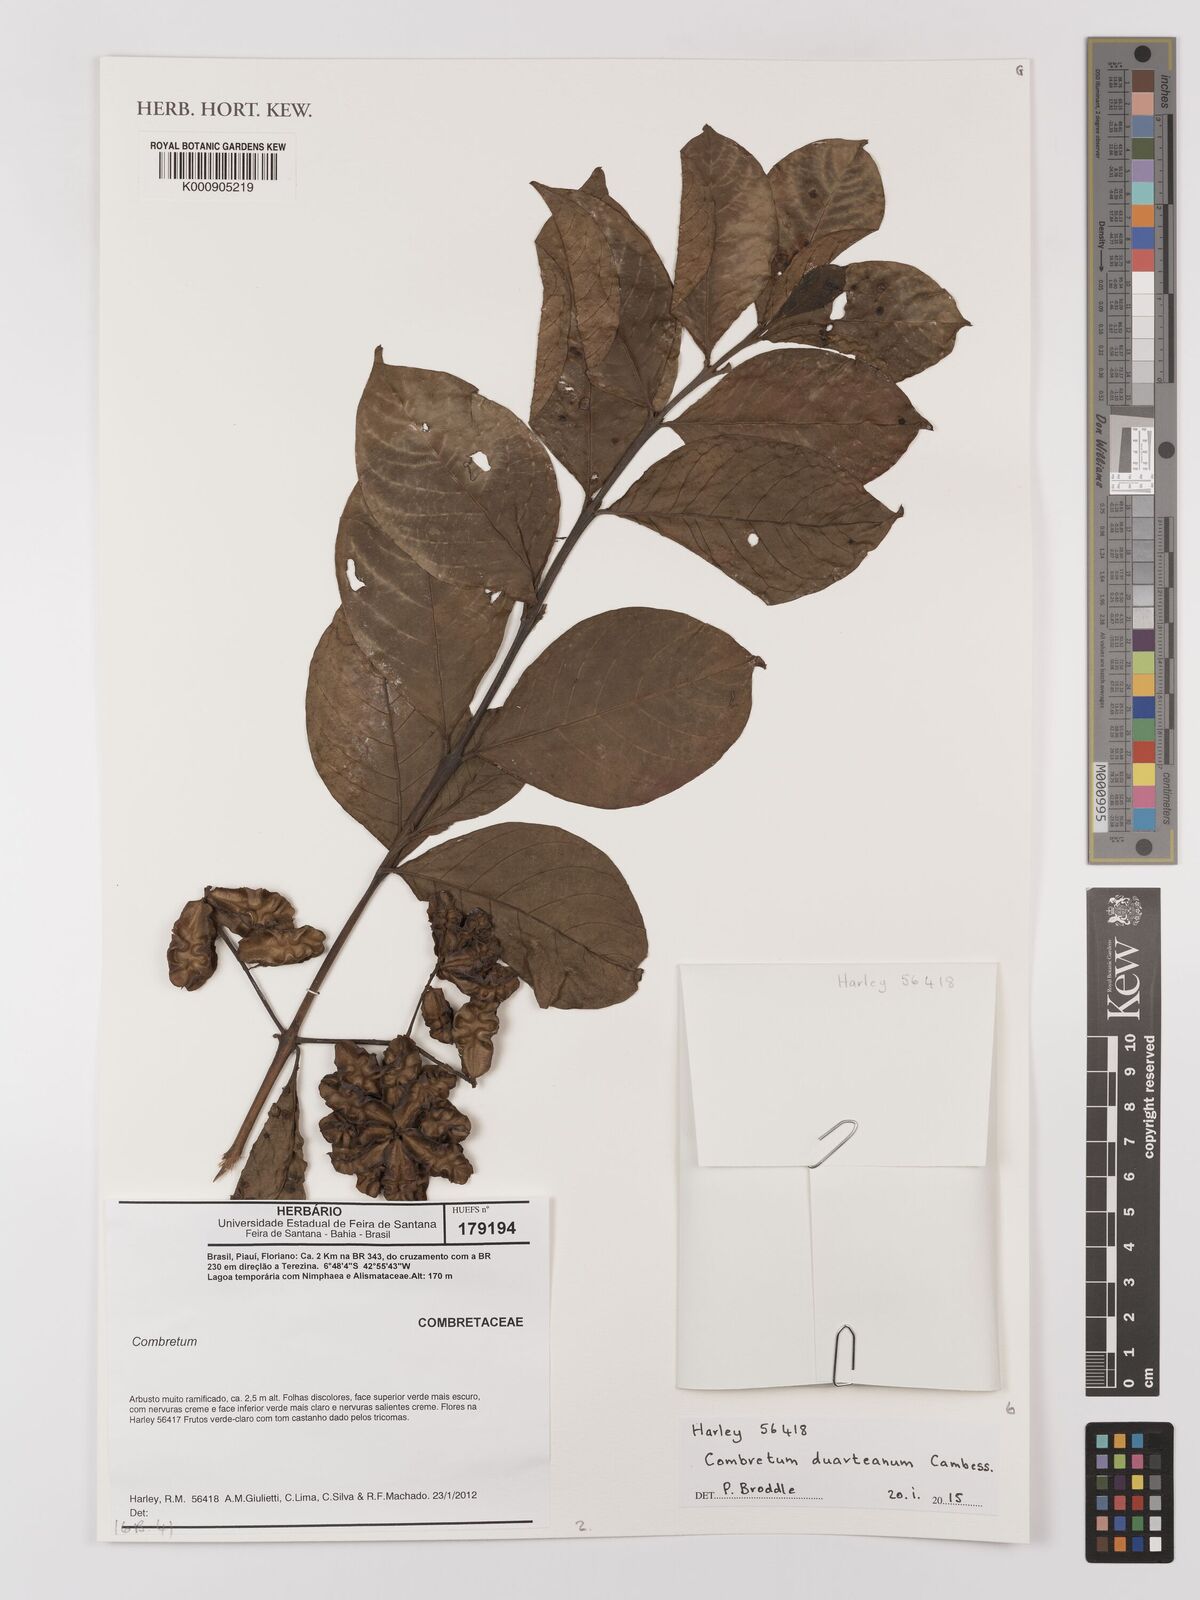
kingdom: Plantae
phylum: Tracheophyta
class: Magnoliopsida
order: Myrtales
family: Combretaceae
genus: Combretum
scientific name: Combretum duarteanum
